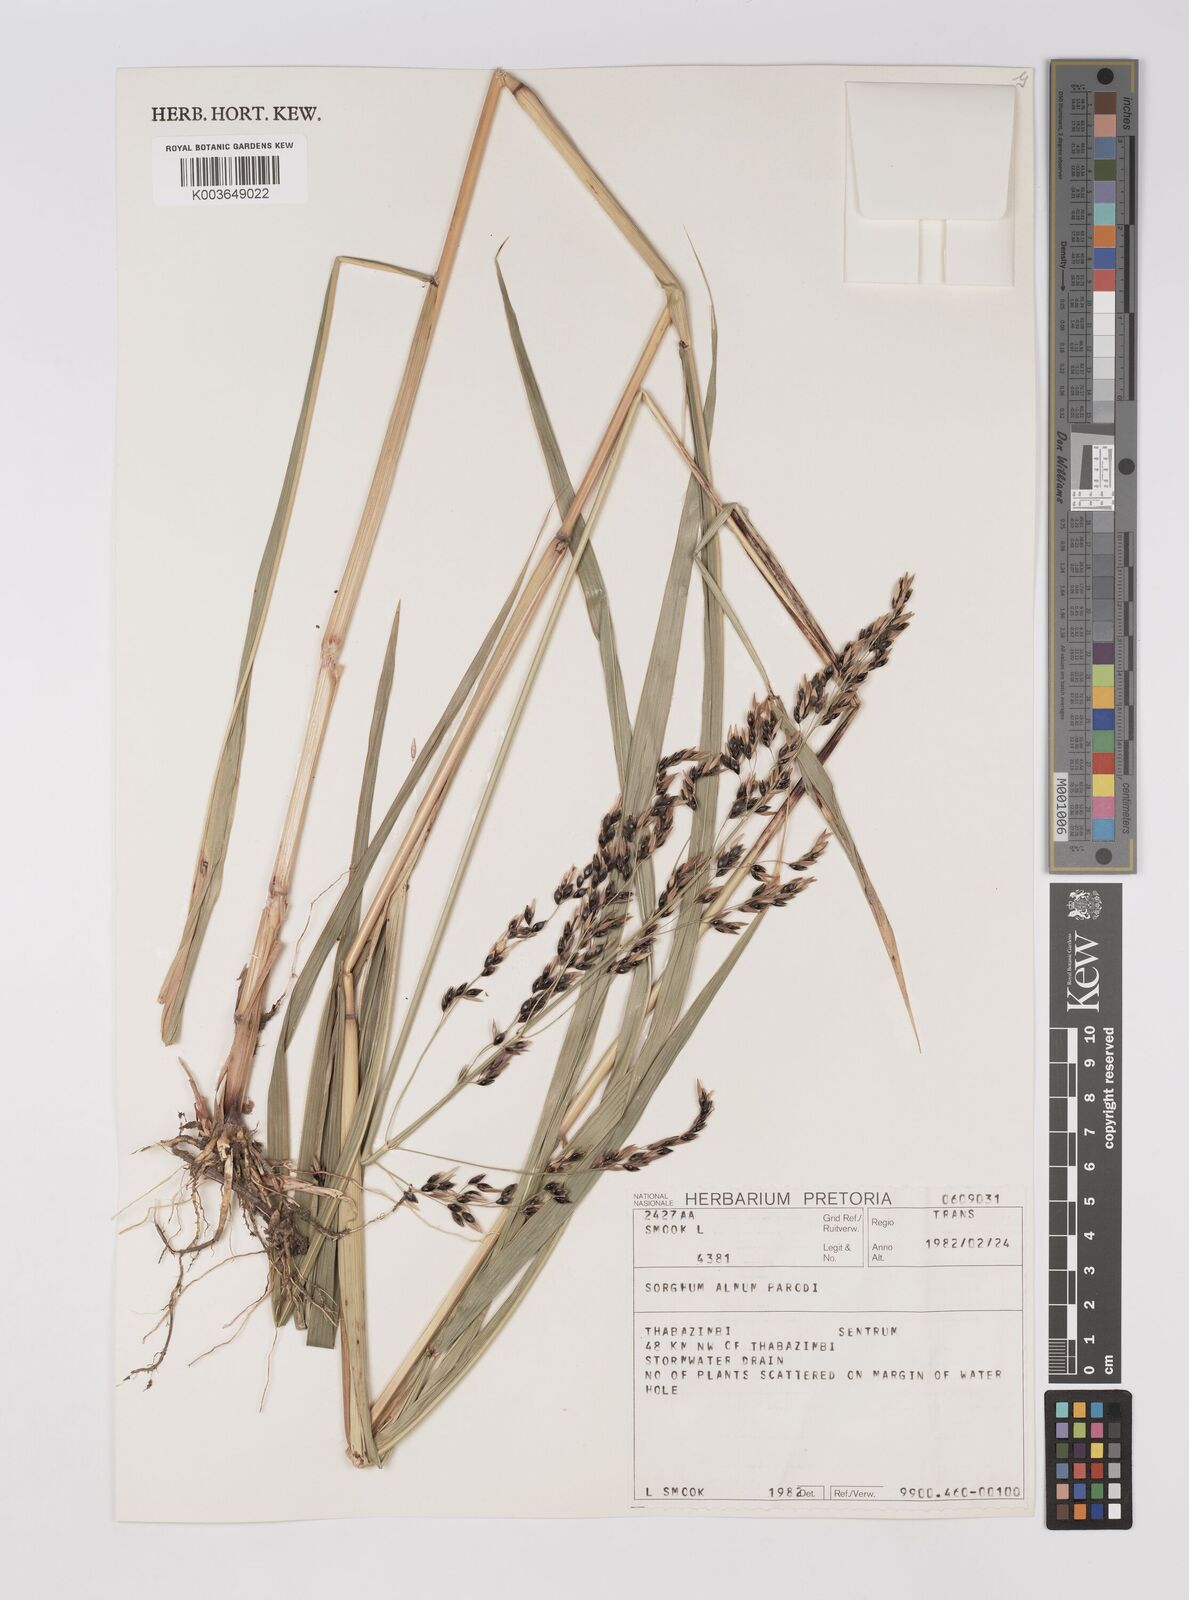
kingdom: Plantae
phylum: Tracheophyta
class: Liliopsida
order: Poales
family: Poaceae
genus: Sorghum
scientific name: Sorghum almum
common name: Columbus grass
